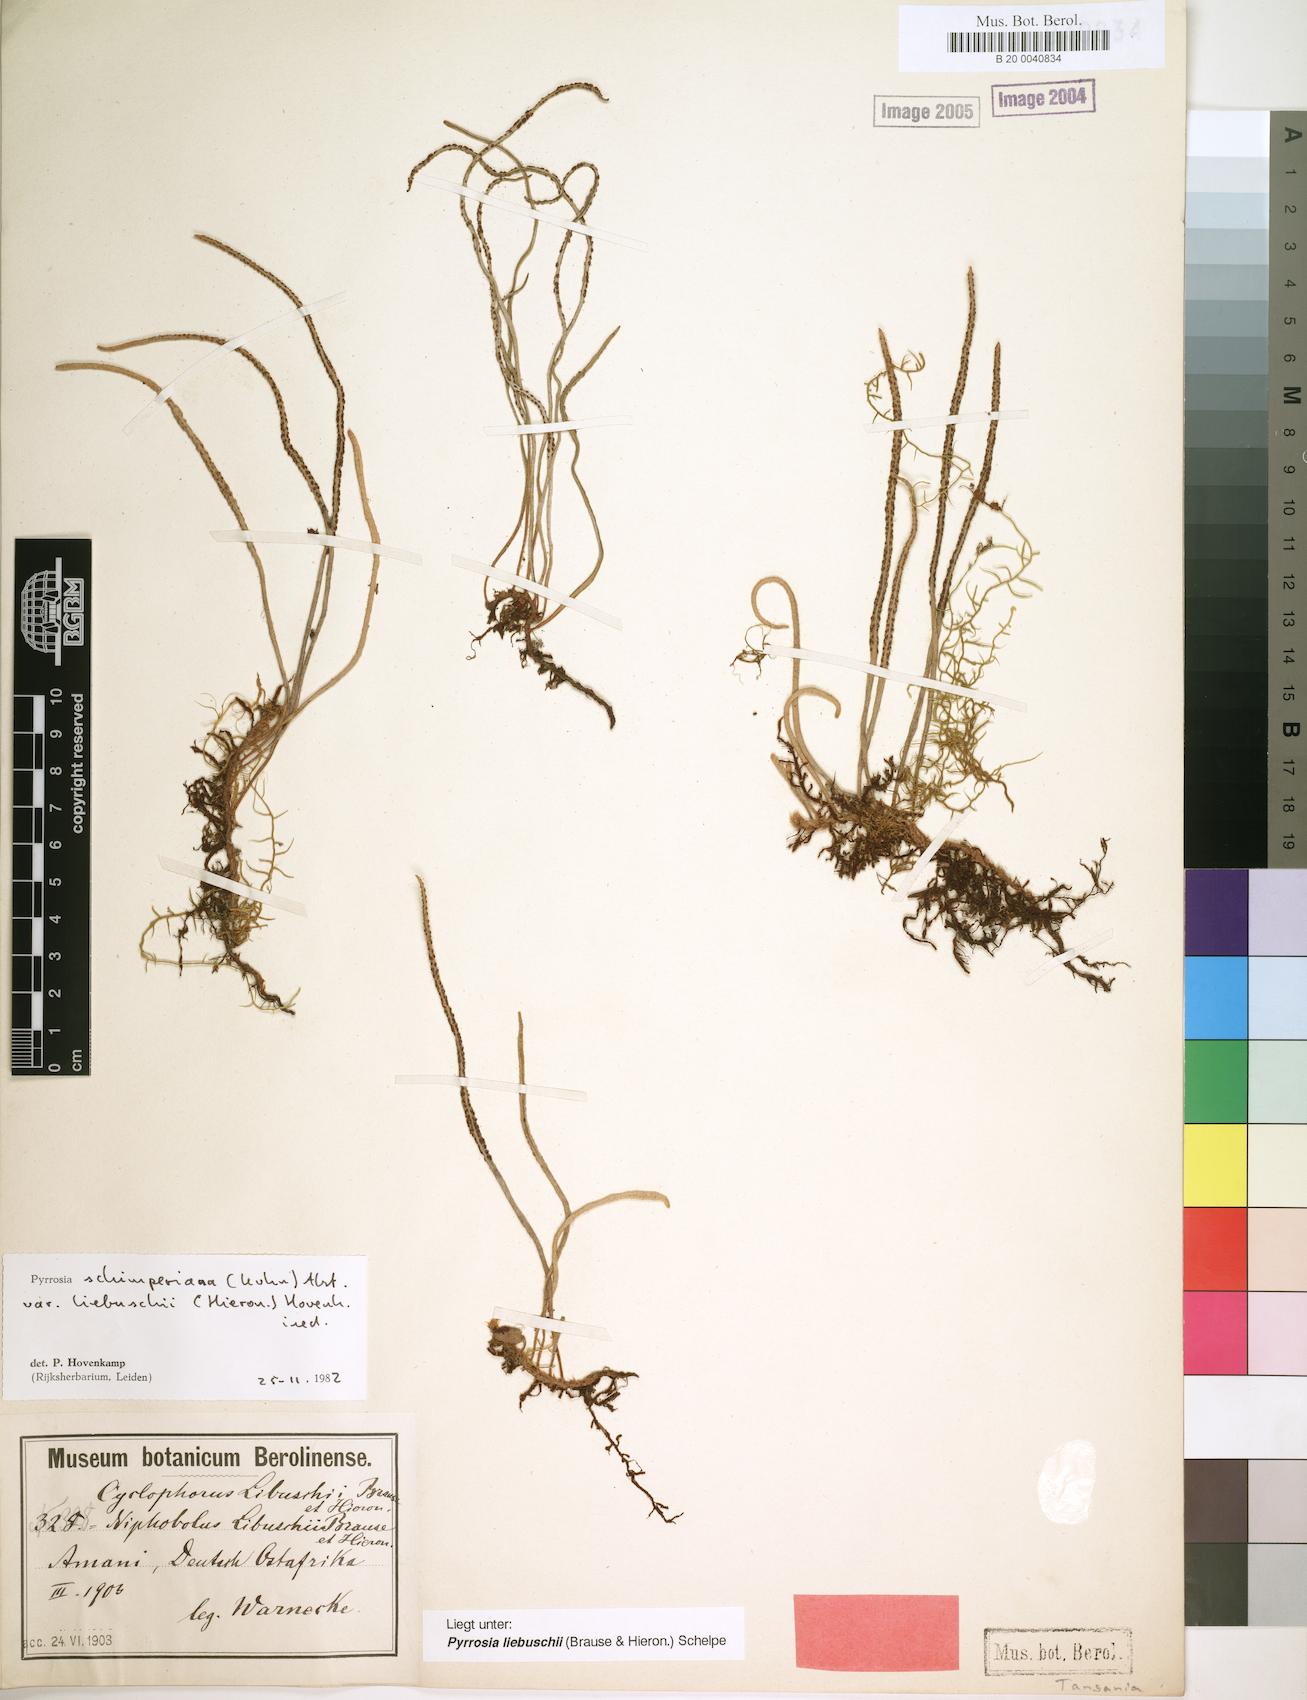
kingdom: Plantae
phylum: Tracheophyta
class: Polypodiopsida
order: Polypodiales
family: Polypodiaceae
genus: Hovenkampia
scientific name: Hovenkampia liebuschii
